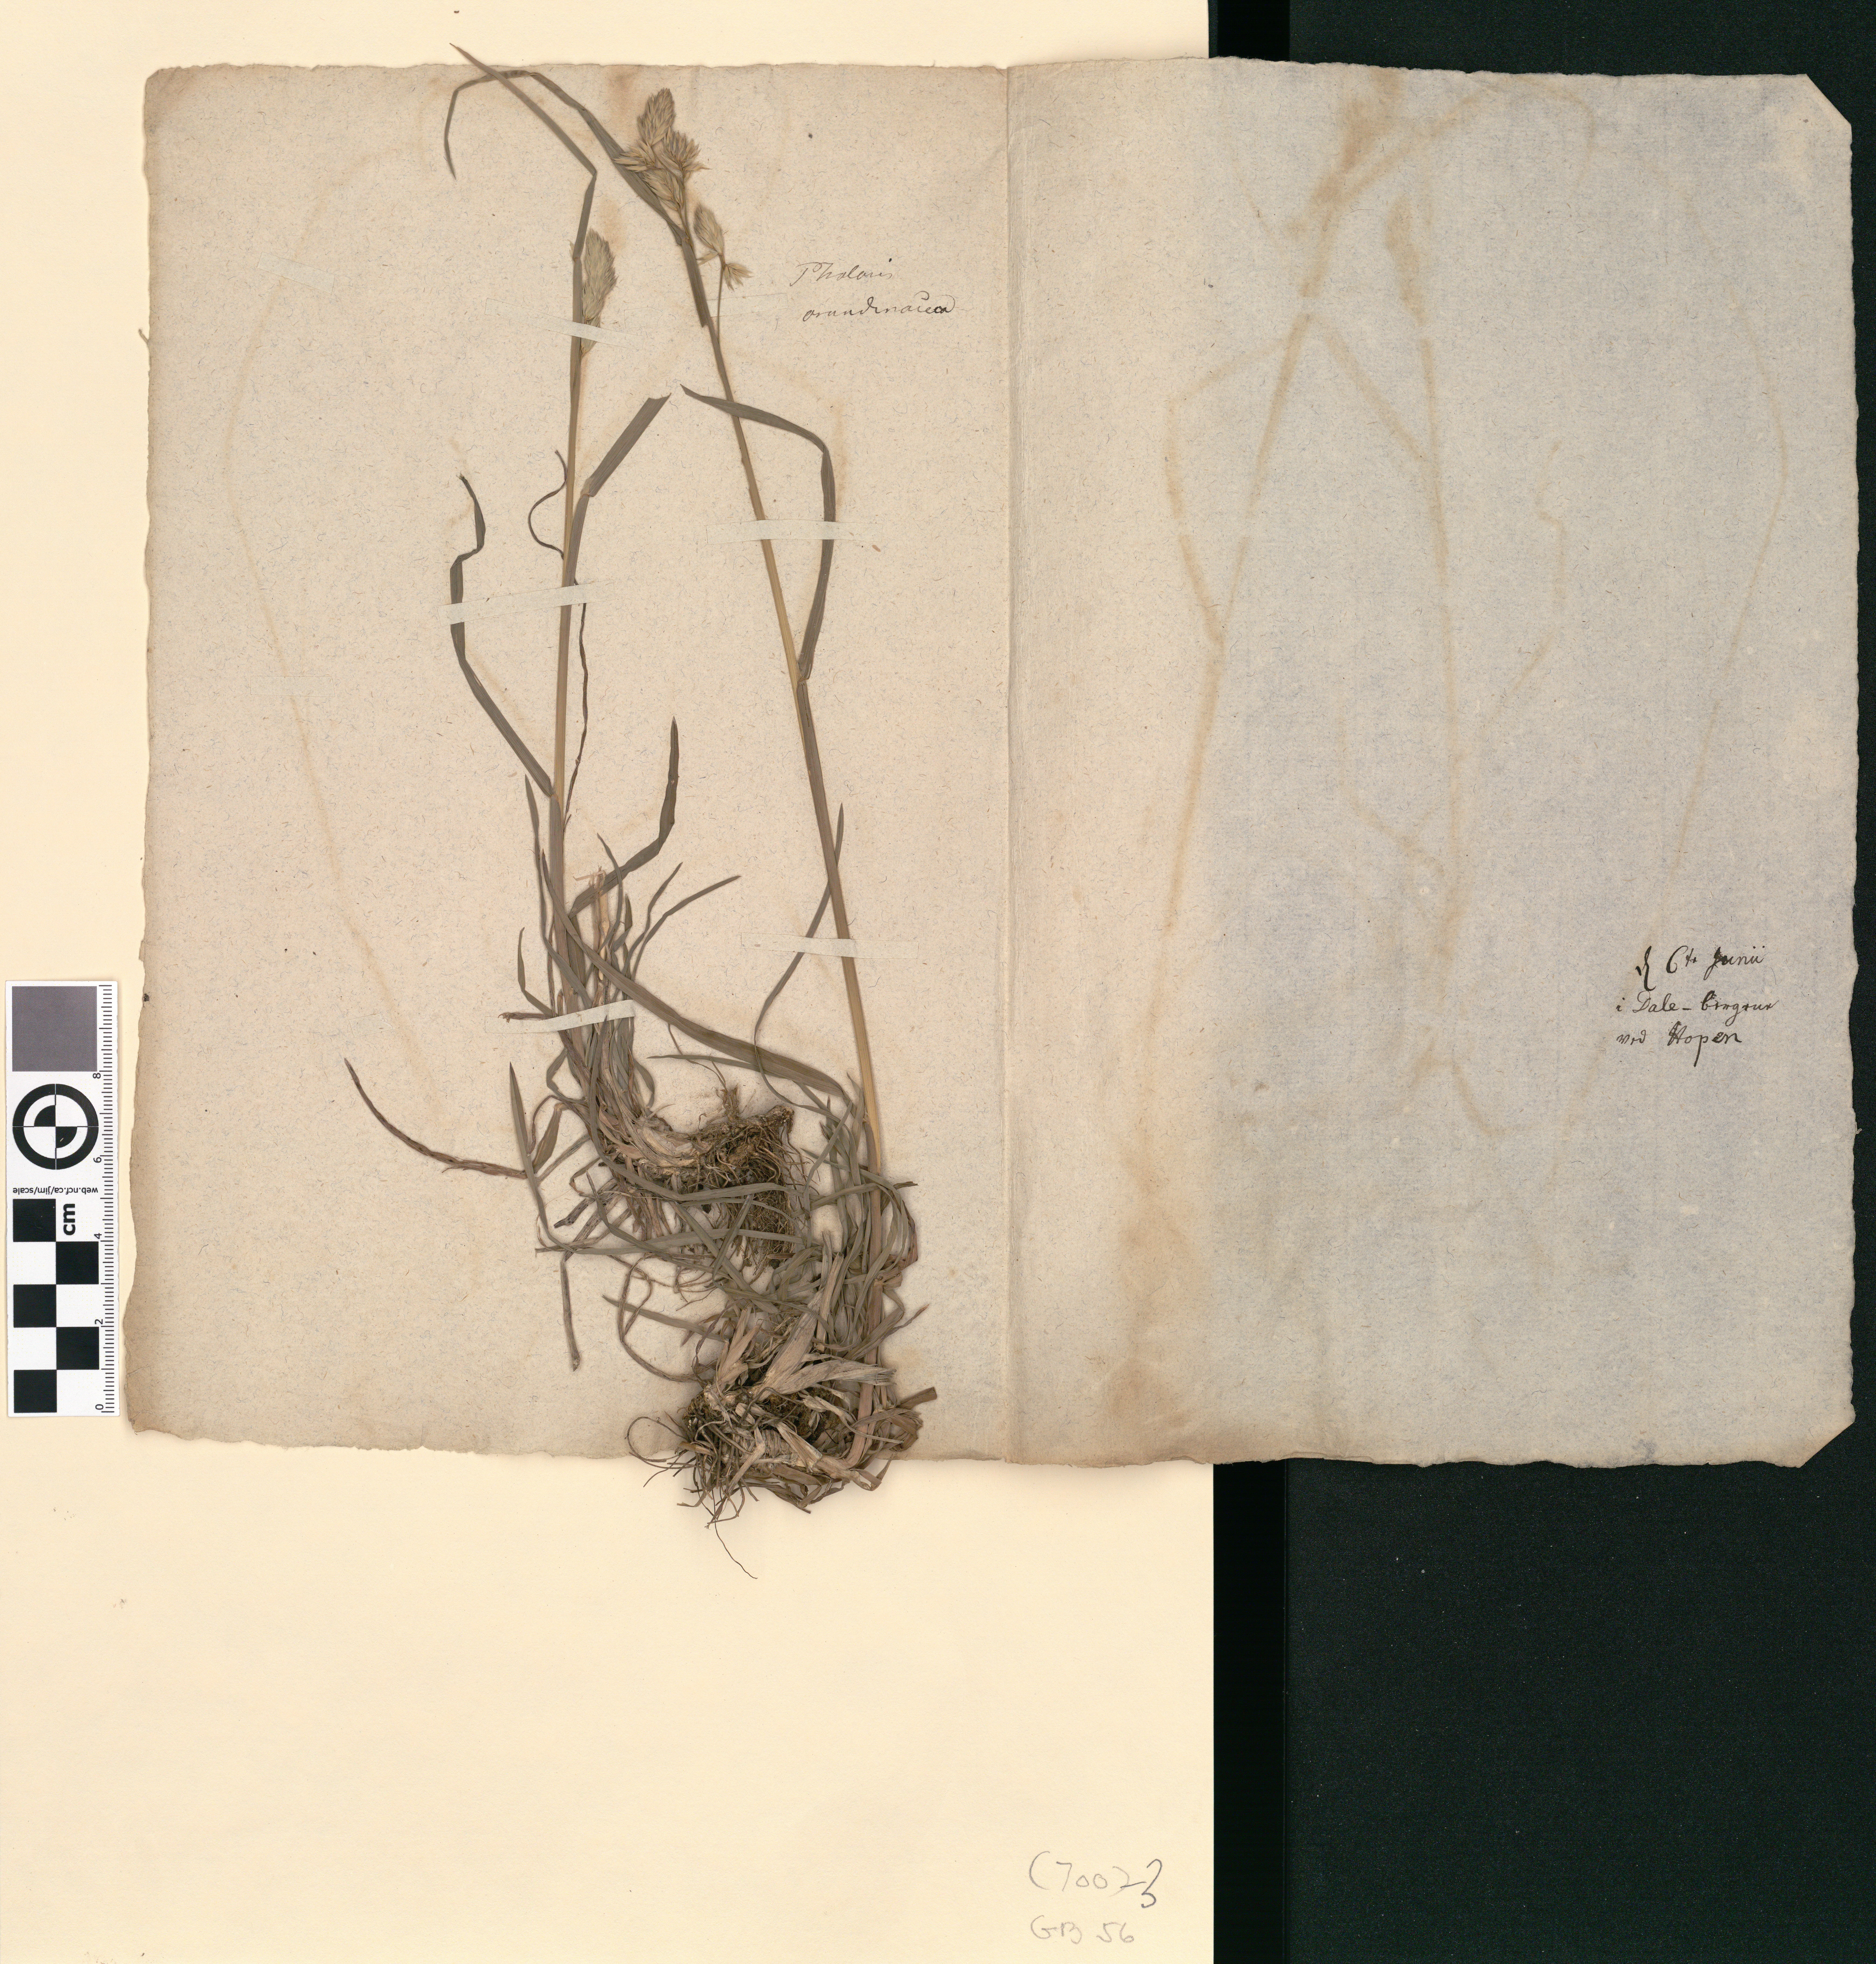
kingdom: Plantae
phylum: Tracheophyta
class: Liliopsida
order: Poales
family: Poaceae
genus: Phalaris
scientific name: Phalaris arundinacea
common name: Reed canary-grass
